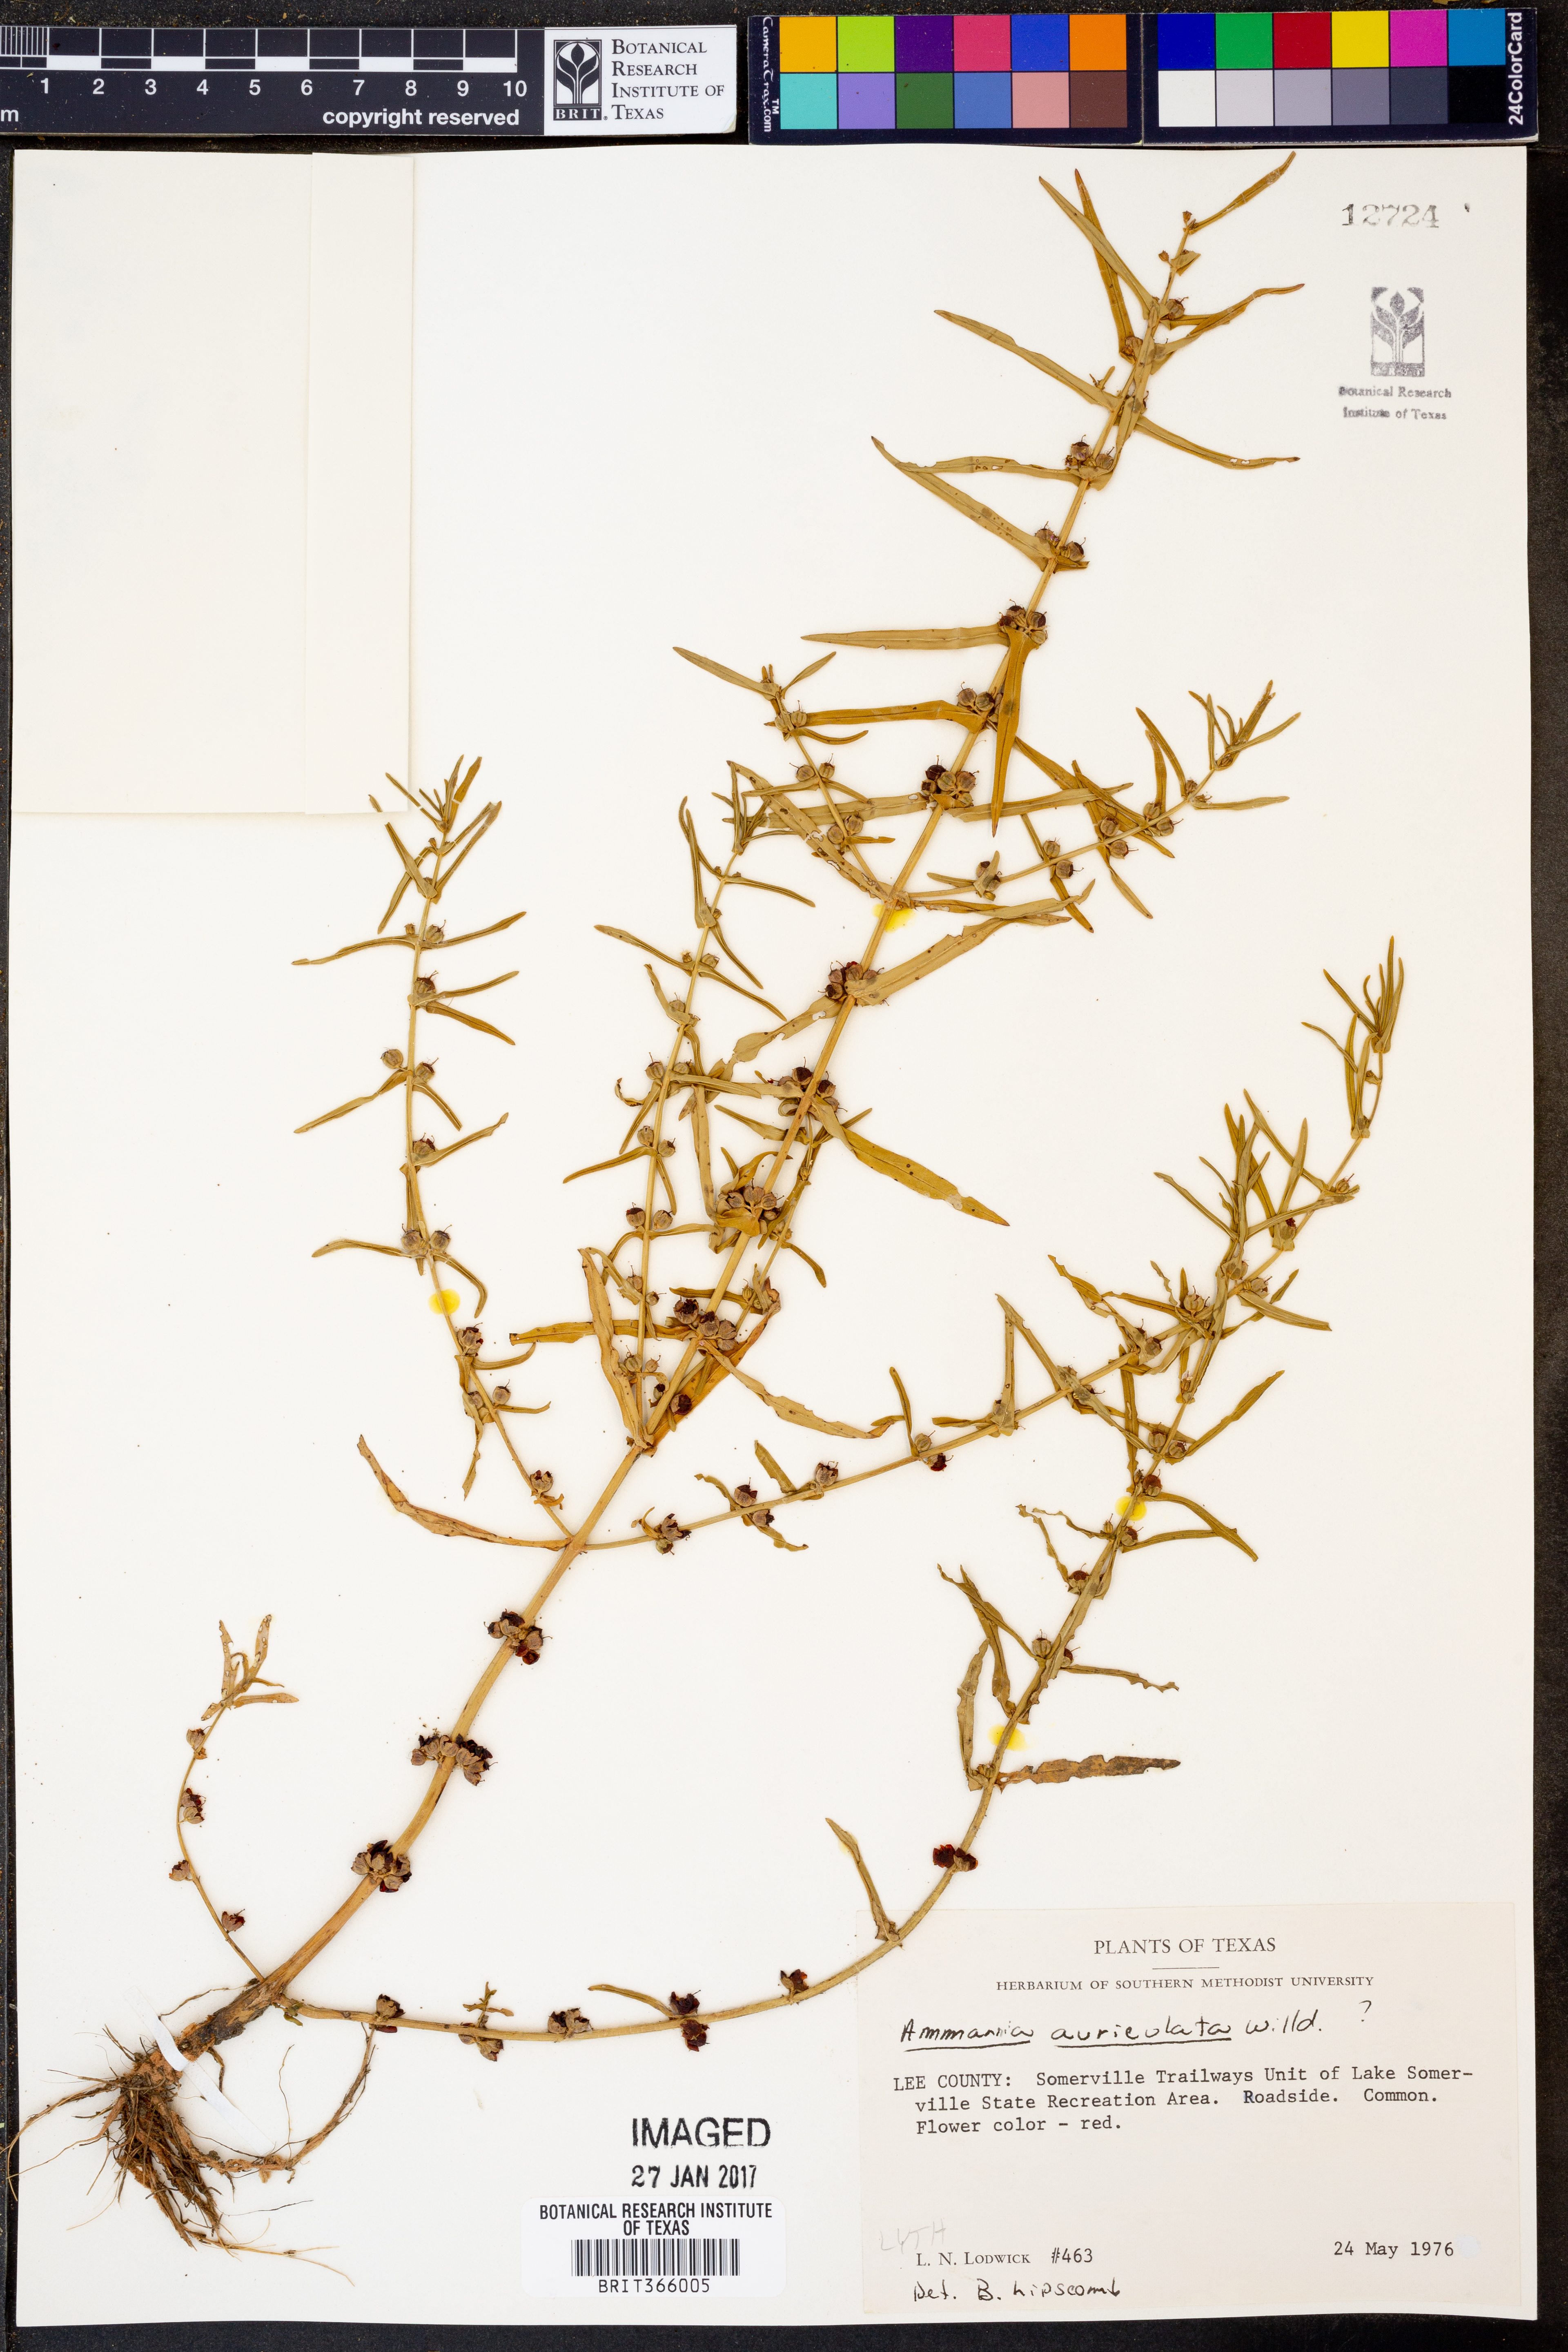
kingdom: Plantae
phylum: Tracheophyta
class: Magnoliopsida
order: Myrtales
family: Lythraceae
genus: Ammannia
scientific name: Ammannia auriculata
